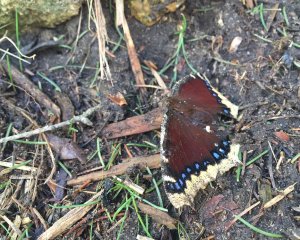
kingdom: Animalia
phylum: Arthropoda
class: Insecta
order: Lepidoptera
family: Nymphalidae
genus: Nymphalis
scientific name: Nymphalis antiopa
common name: Mourning Cloak
